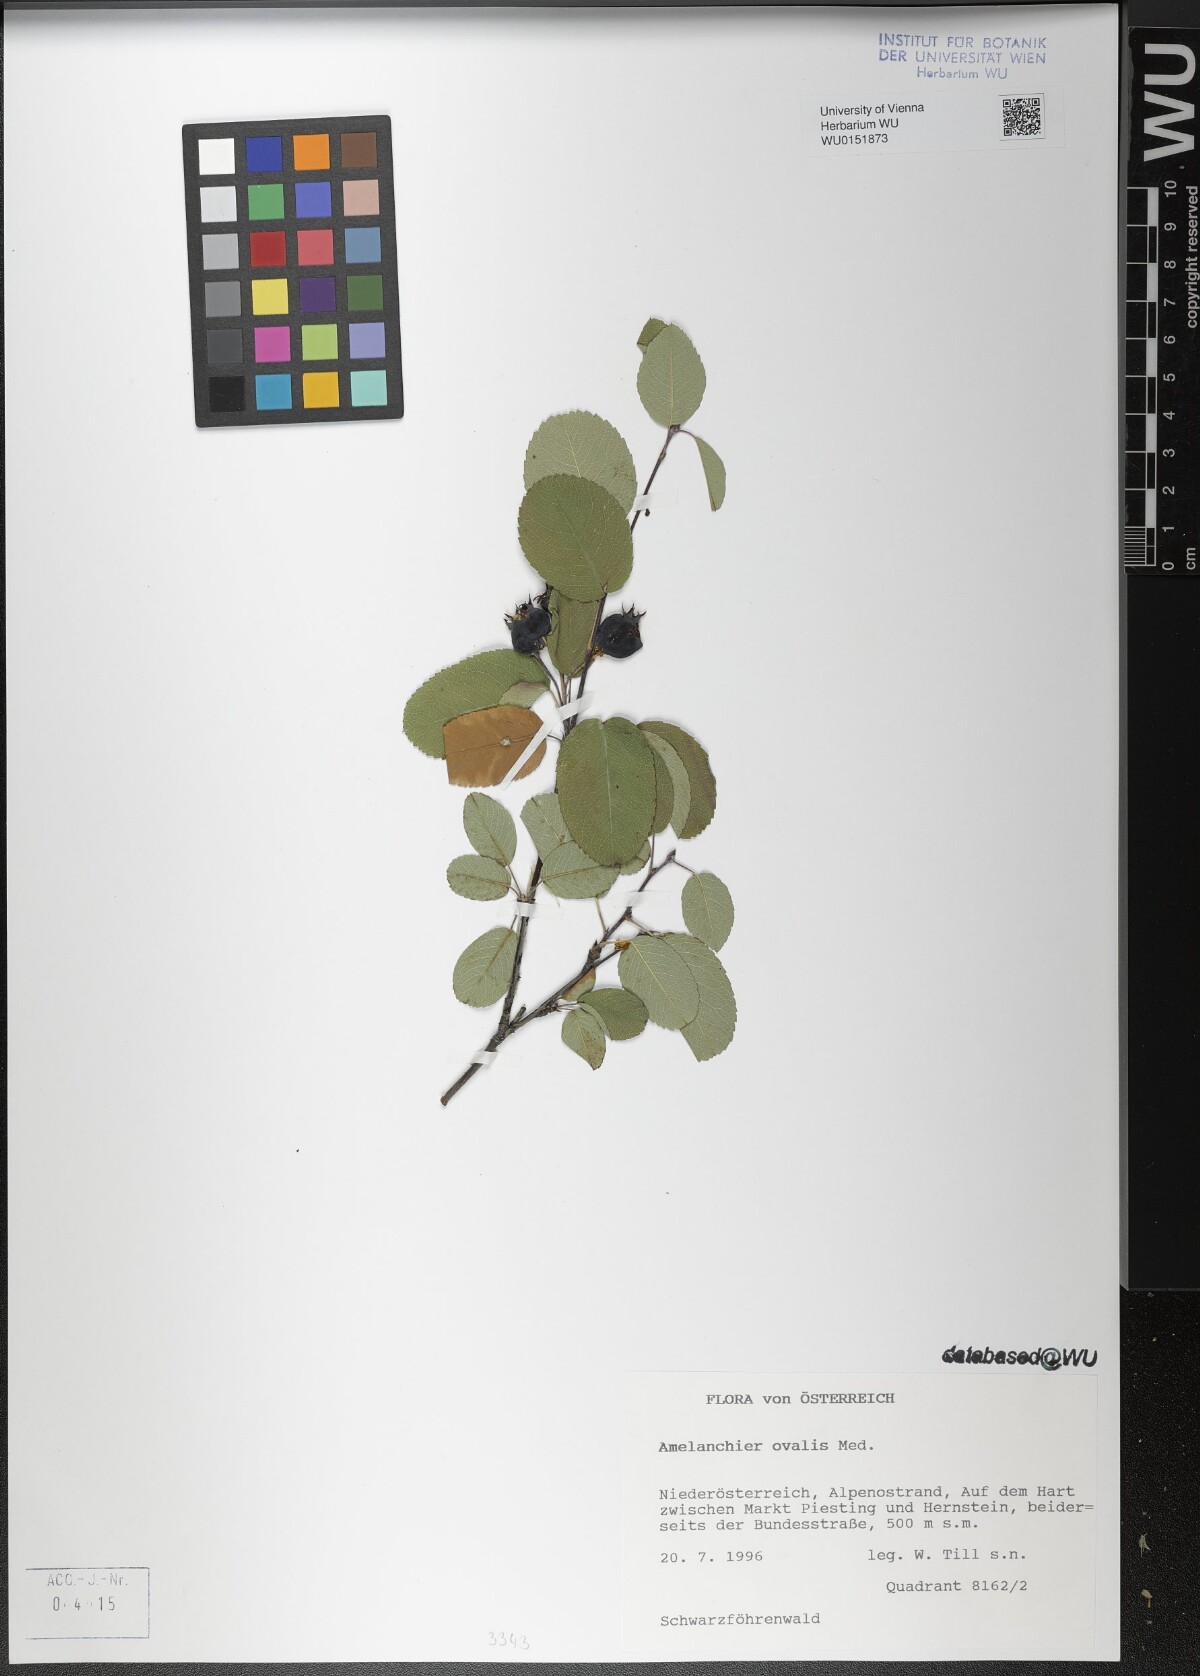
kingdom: Plantae
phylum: Tracheophyta
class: Magnoliopsida
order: Rosales
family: Rosaceae
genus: Amelanchier
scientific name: Amelanchier ovalis
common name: Serviceberry
